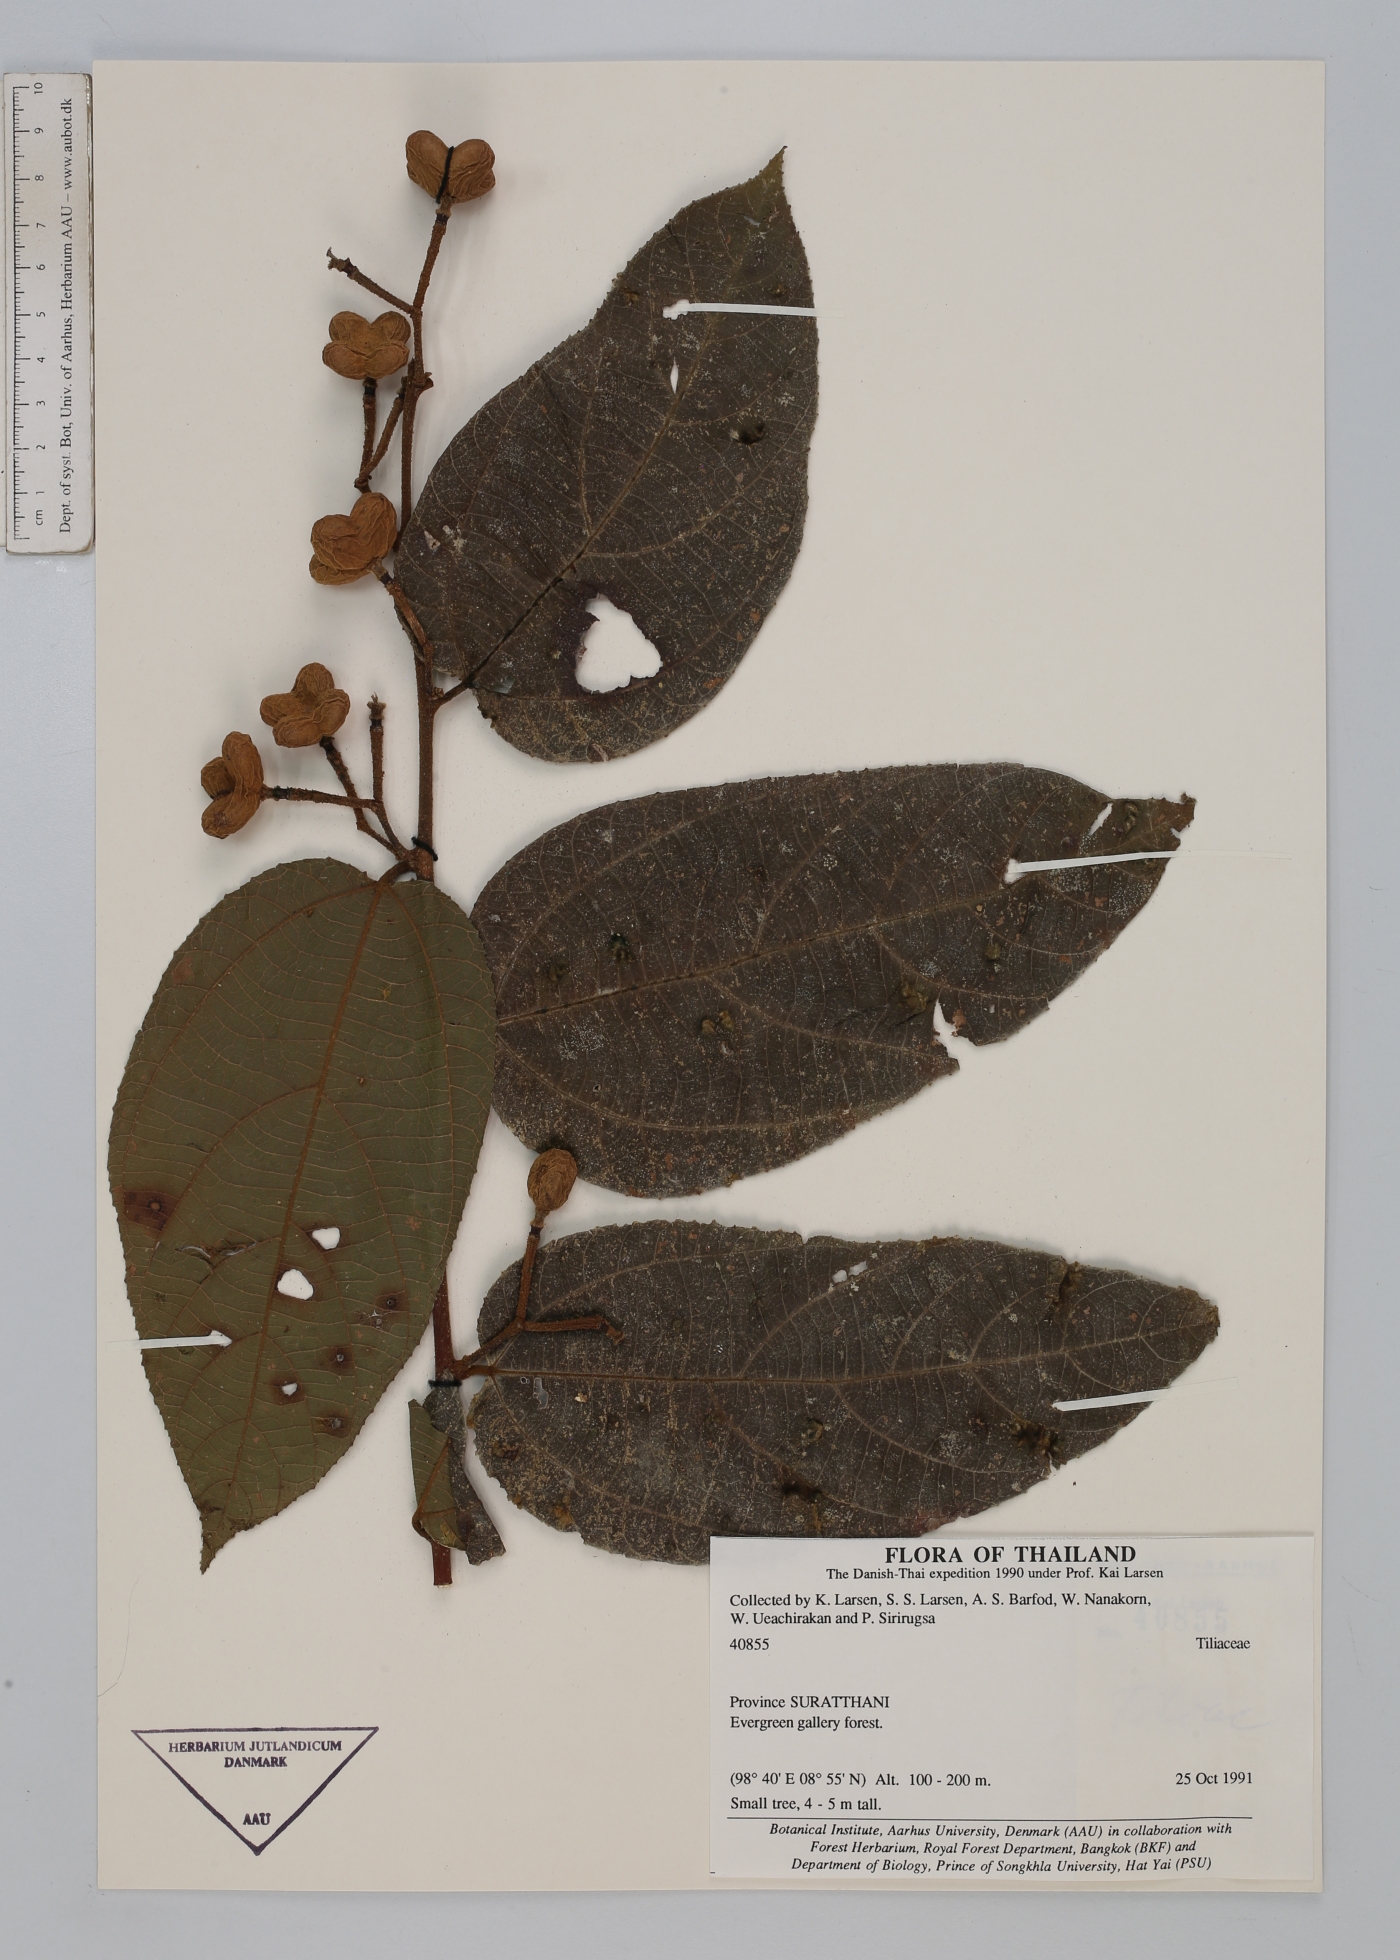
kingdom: Plantae
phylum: Tracheophyta
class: Magnoliopsida
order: Malvales
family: Malvaceae
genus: Grewia
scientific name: Grewia scabrifolia
